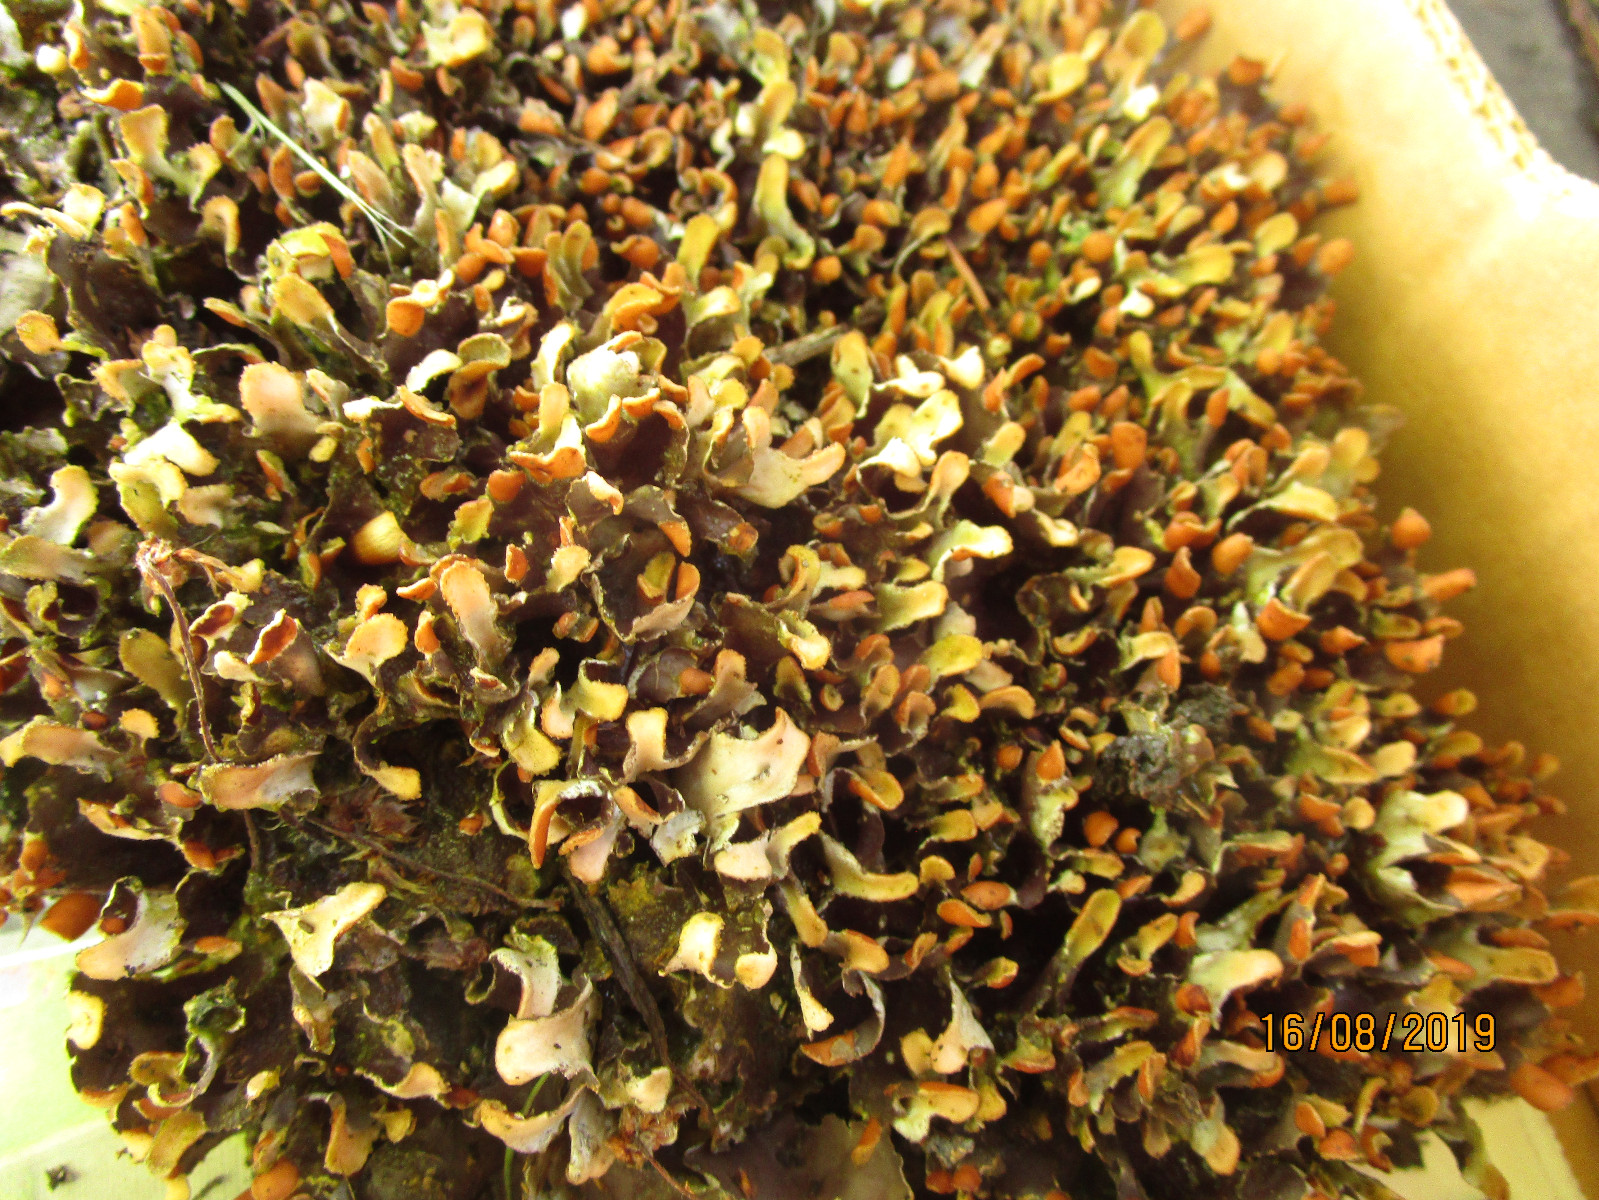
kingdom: Fungi
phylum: Ascomycota
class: Lecanoromycetes
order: Peltigerales
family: Peltigeraceae
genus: Peltigera
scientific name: Peltigera
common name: skjoldlav
